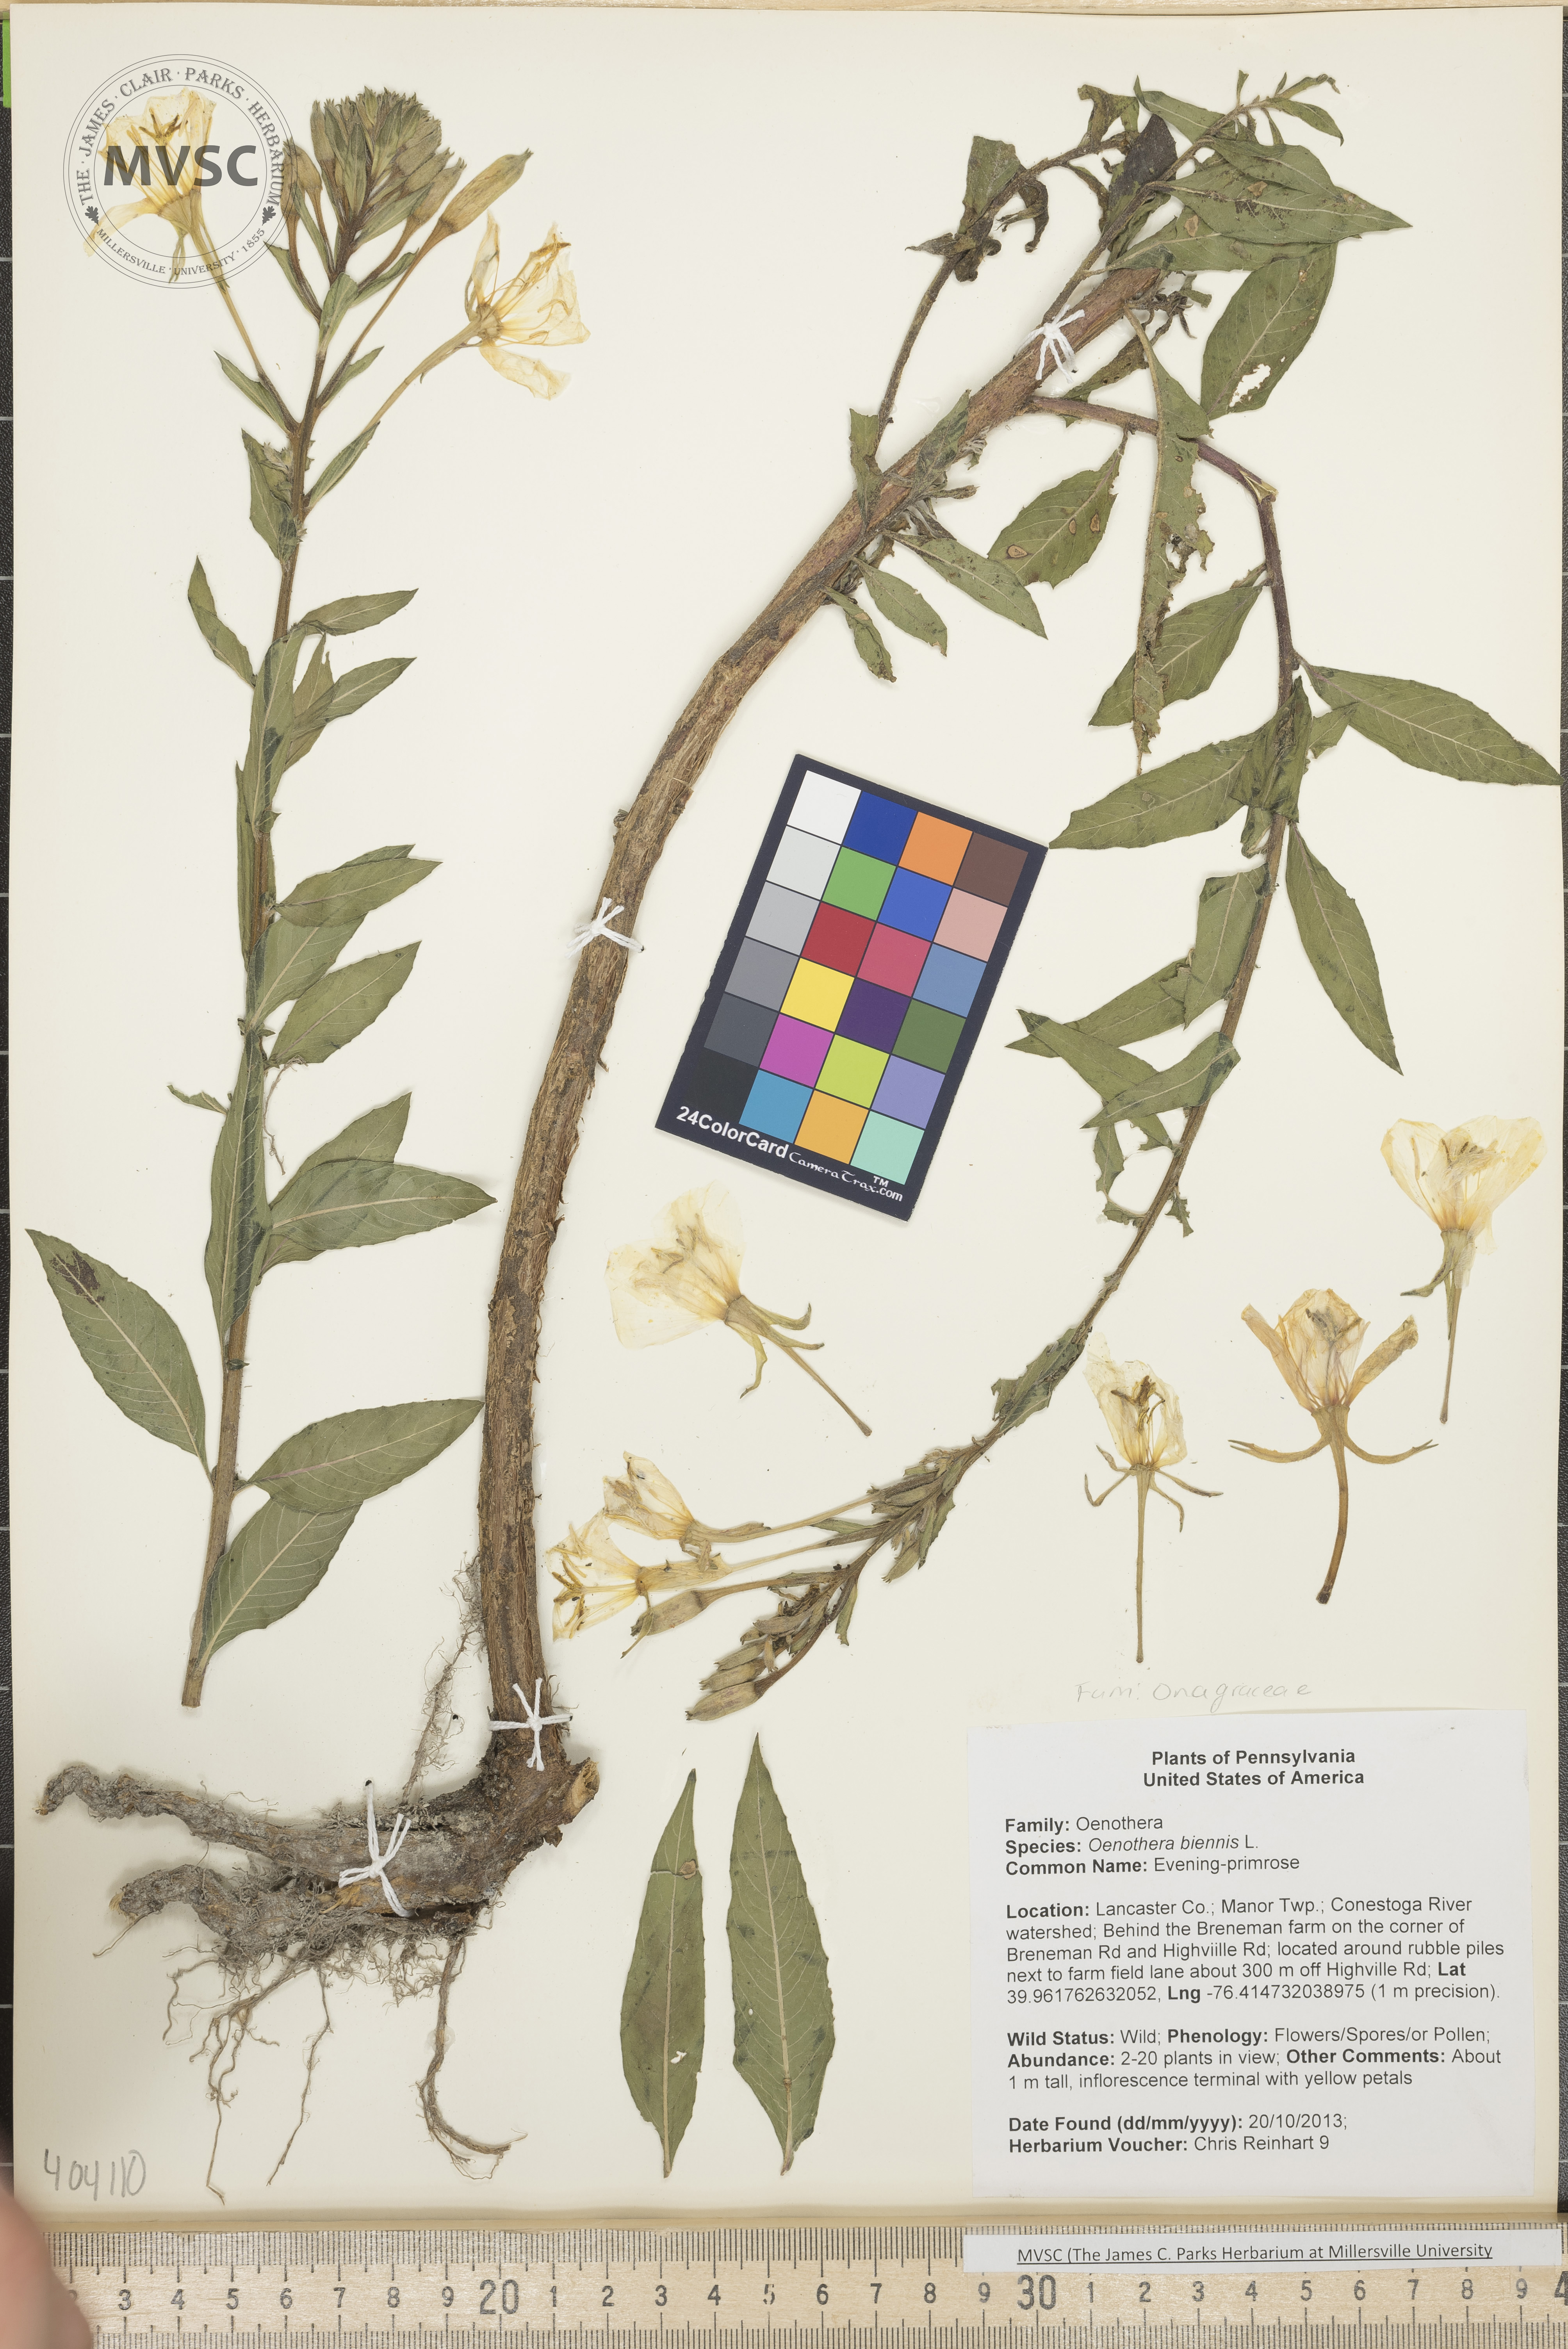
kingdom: Plantae
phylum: Tracheophyta
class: Magnoliopsida
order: Myrtales
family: Onagraceae
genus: Oenothera
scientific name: Oenothera biennis
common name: Evening-primrose
